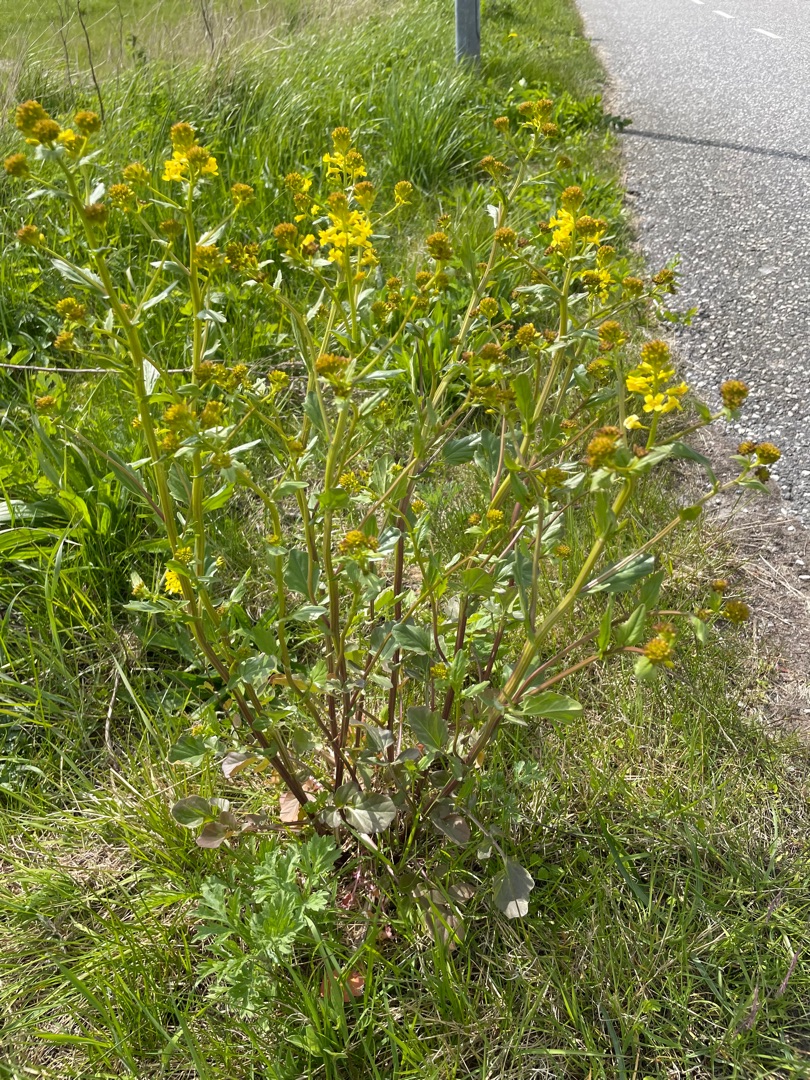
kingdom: Plantae
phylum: Tracheophyta
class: Magnoliopsida
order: Brassicales
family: Brassicaceae
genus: Barbarea
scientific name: Barbarea vulgaris
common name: Almindelig vinterkarse
